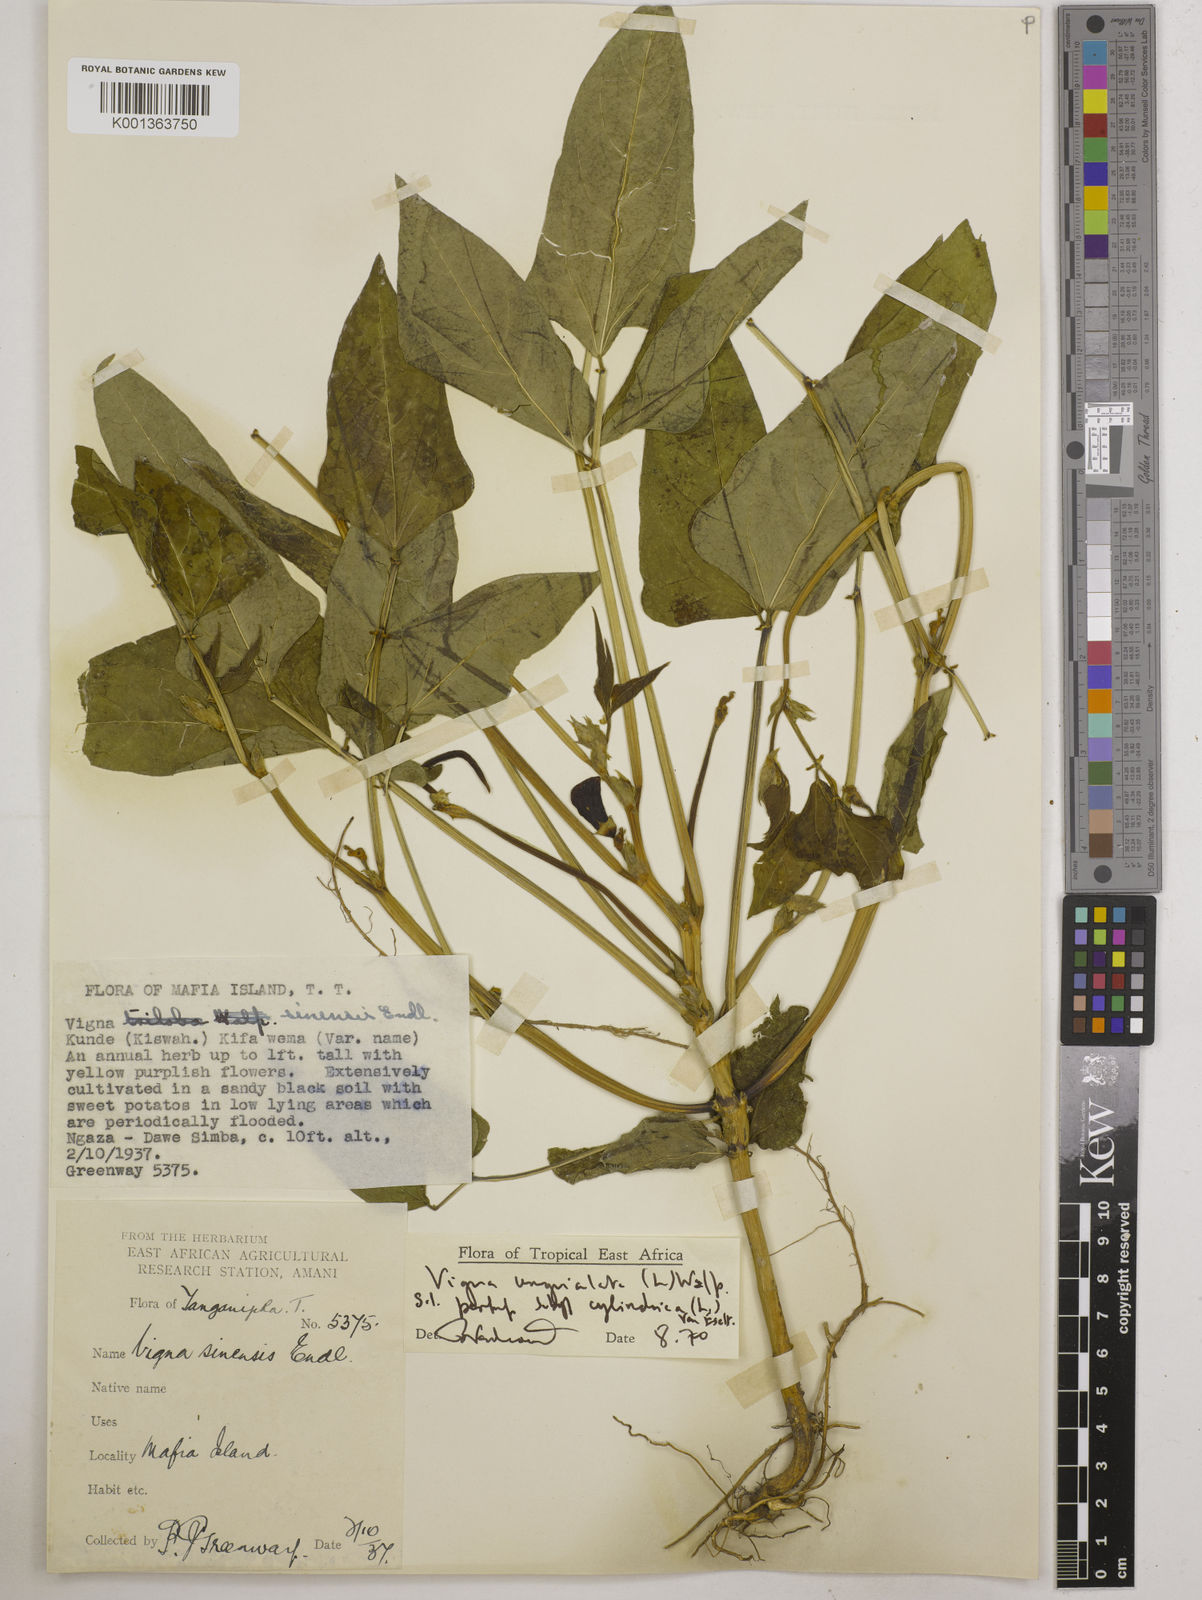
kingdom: Plantae
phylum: Tracheophyta
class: Magnoliopsida
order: Fabales
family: Fabaceae
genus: Vigna
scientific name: Vigna
